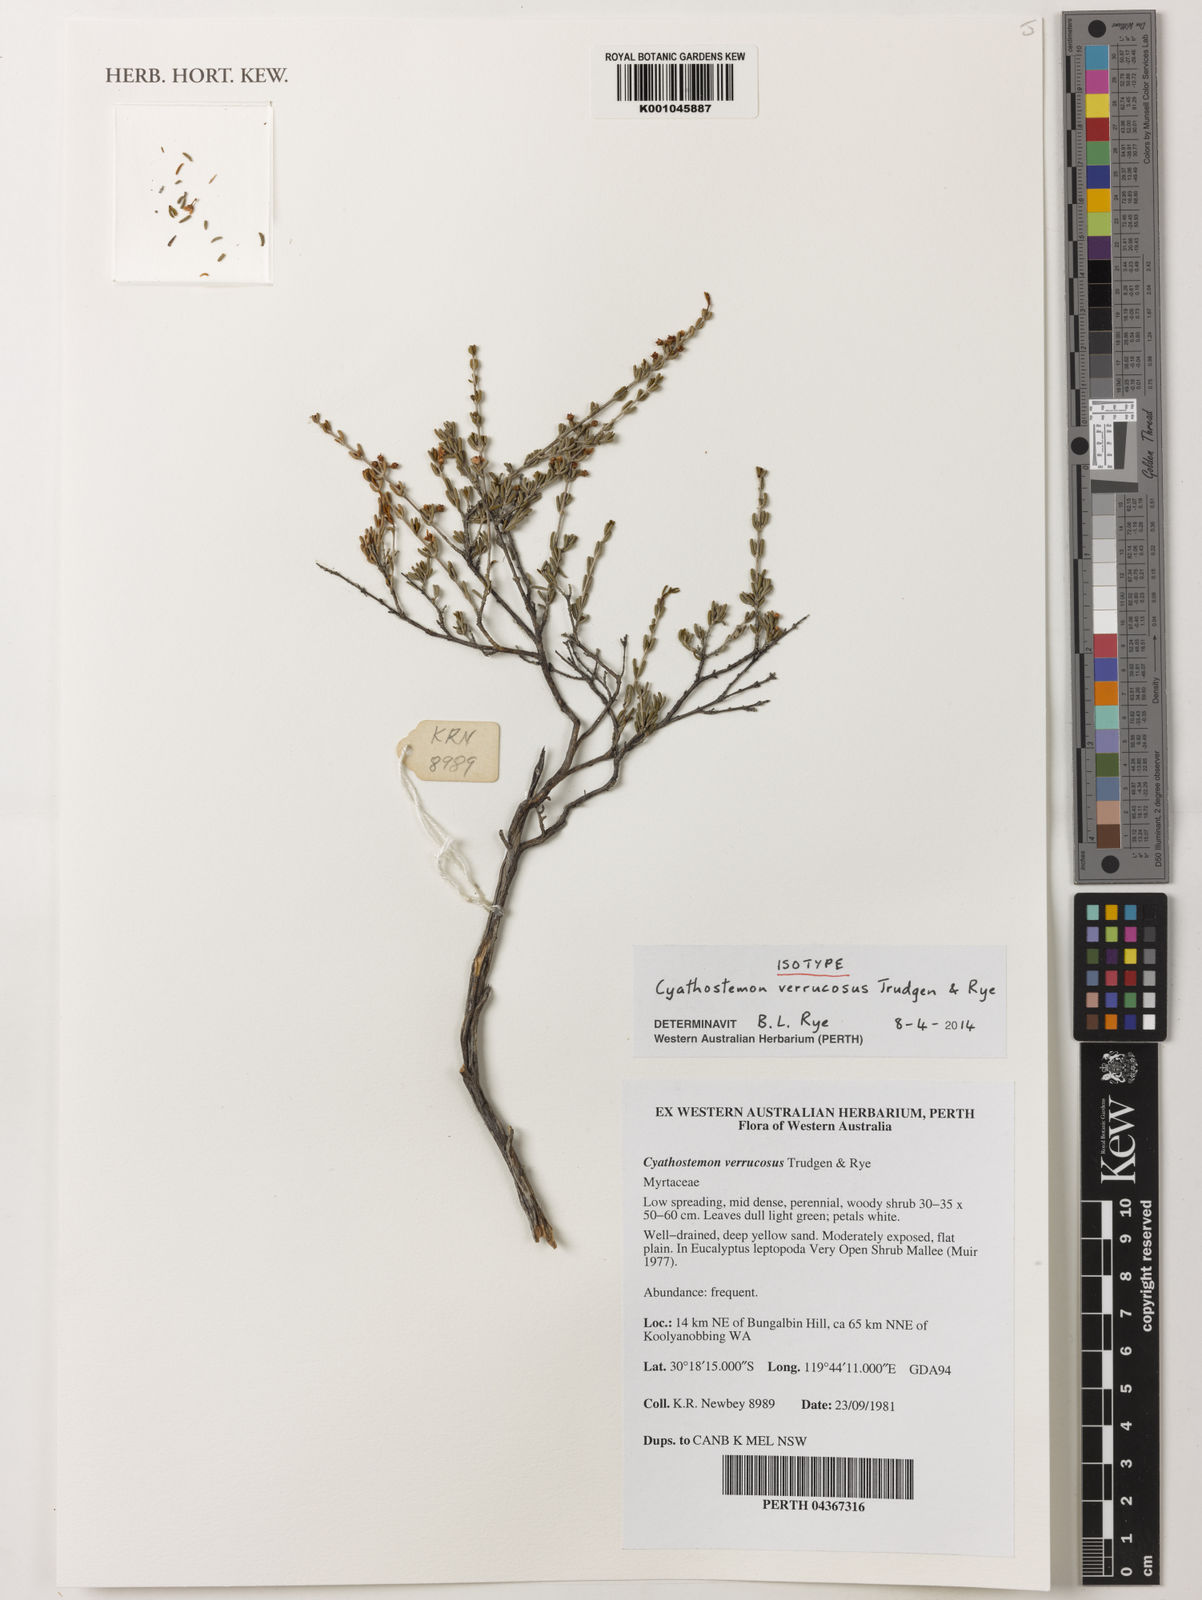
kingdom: Plantae
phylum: Tracheophyta
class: Magnoliopsida
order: Myrtales
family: Myrtaceae
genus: Cyathostemon
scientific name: Cyathostemon verrucosus
